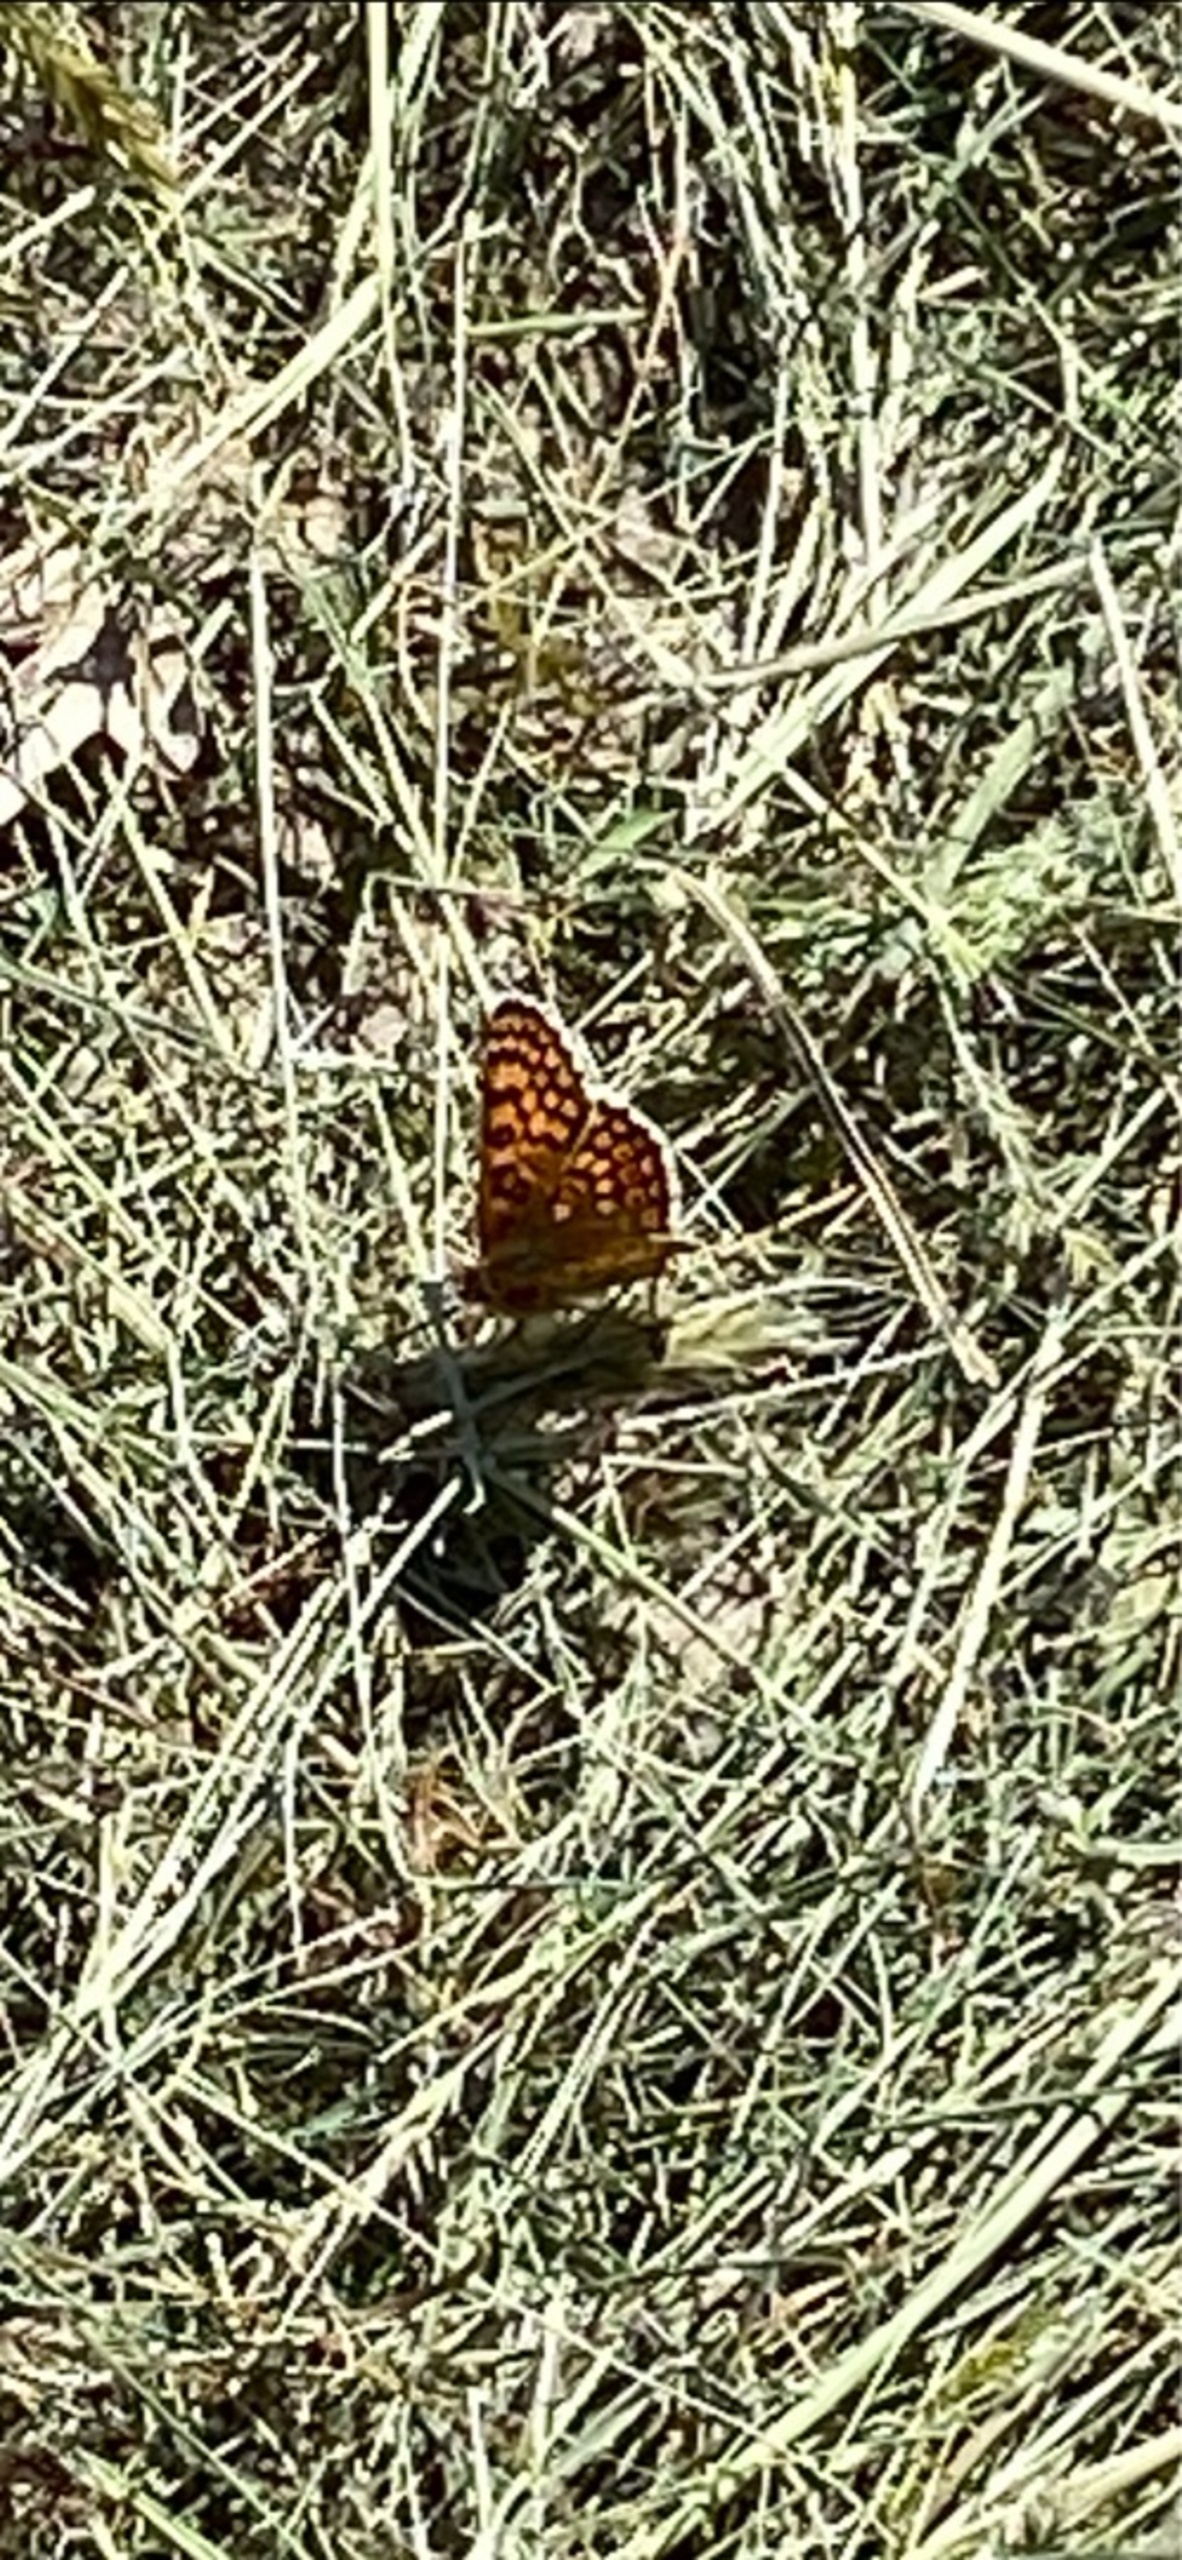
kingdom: Animalia
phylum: Arthropoda
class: Insecta
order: Lepidoptera
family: Nymphalidae
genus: Melitaea
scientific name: Melitaea cinxia
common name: Okkergul pletvinge
